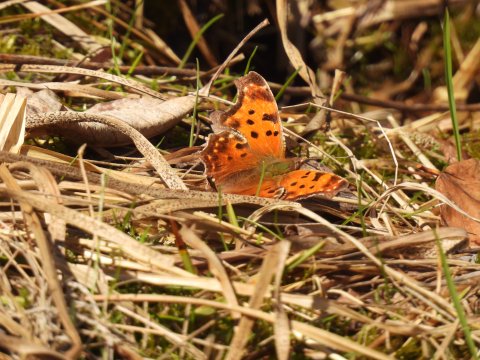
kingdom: Animalia
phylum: Arthropoda
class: Insecta
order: Lepidoptera
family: Nymphalidae
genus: Polygonia
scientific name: Polygonia comma
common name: Eastern Comma
